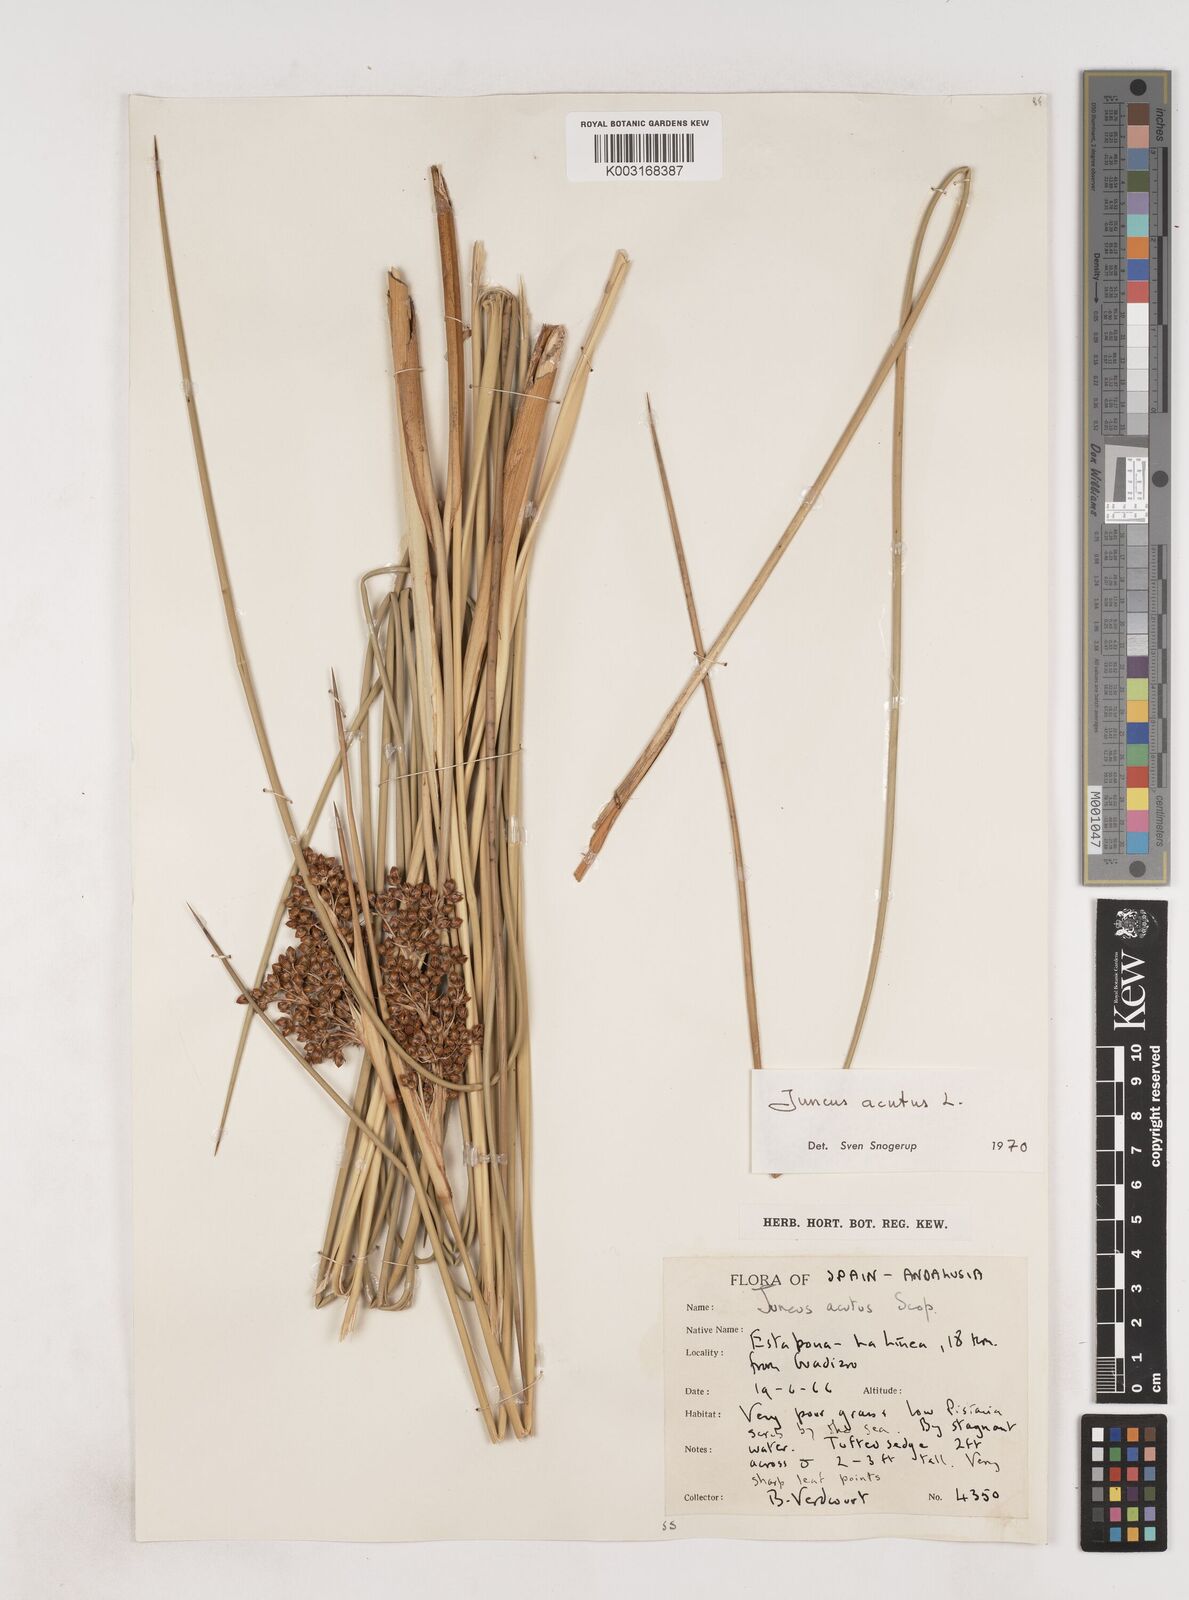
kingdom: Plantae
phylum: Tracheophyta
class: Liliopsida
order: Poales
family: Juncaceae
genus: Juncus
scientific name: Juncus acutus
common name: Sharp rush
